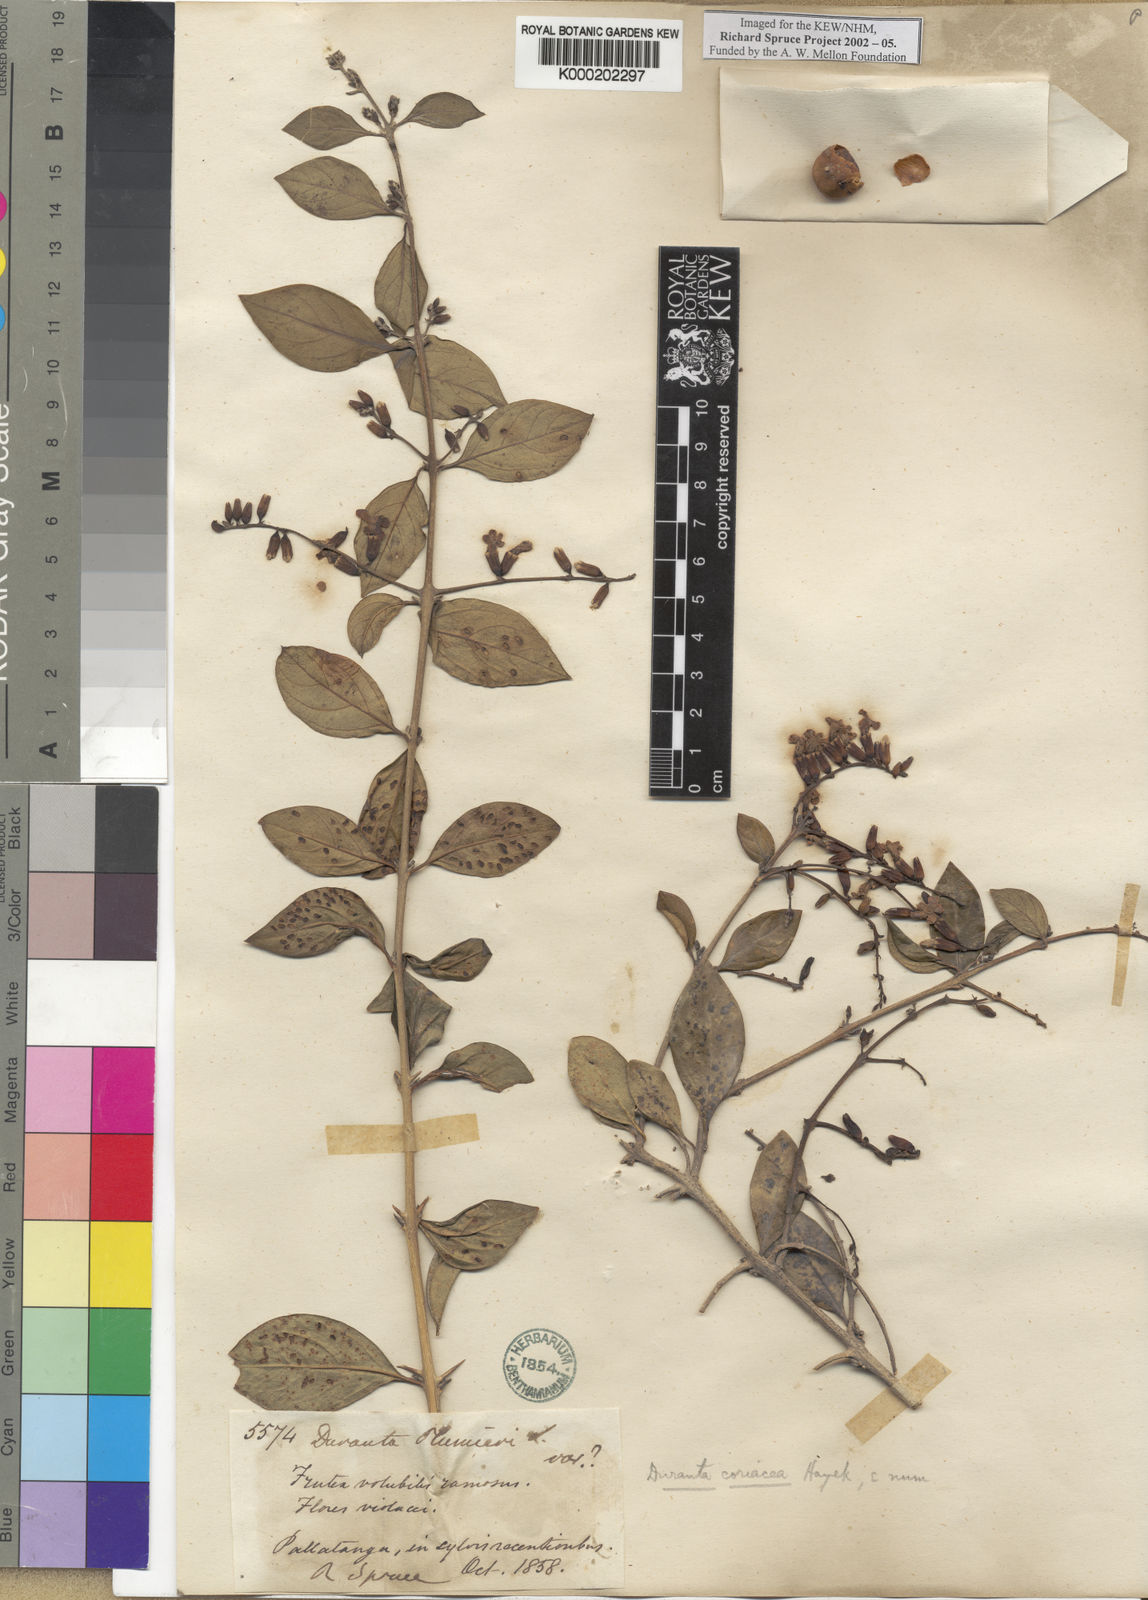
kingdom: Plantae
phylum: Tracheophyta
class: Magnoliopsida
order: Lamiales
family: Verbenaceae
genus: Duranta
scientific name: Duranta coriacea
